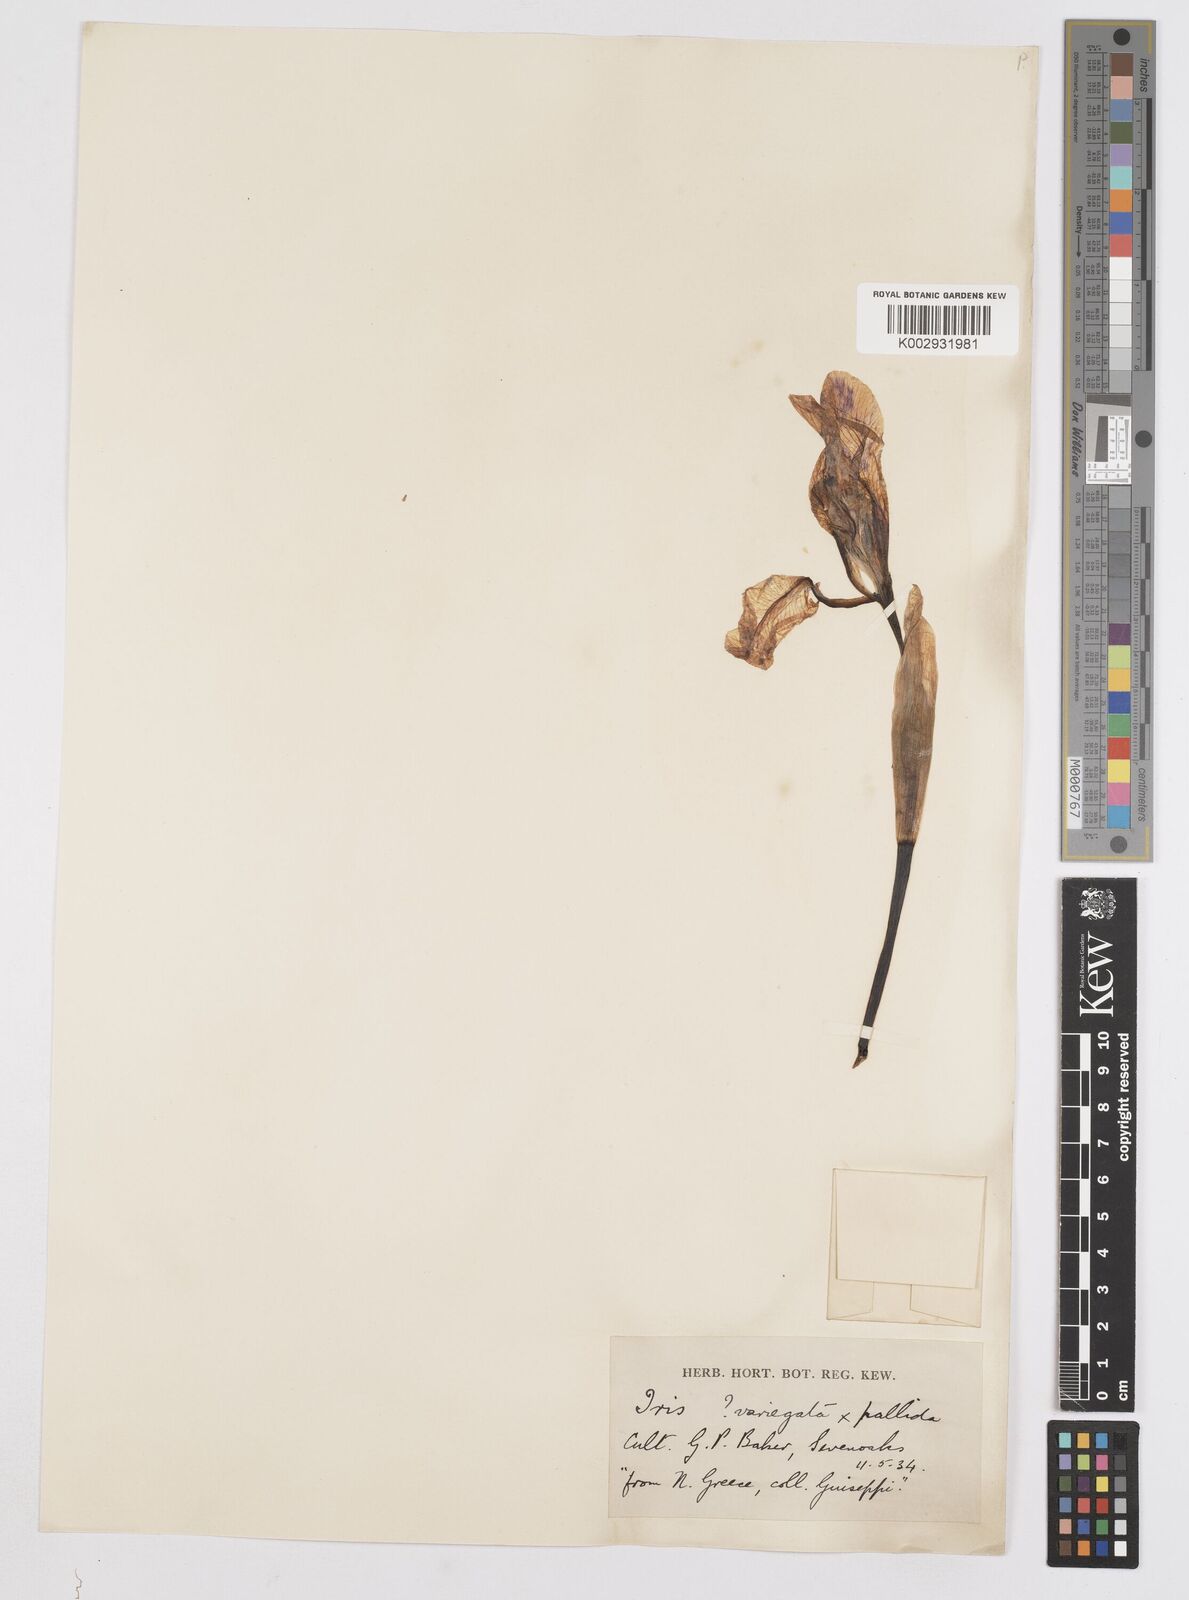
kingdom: Plantae
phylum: Tracheophyta
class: Liliopsida
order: Asparagales
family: Iridaceae
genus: Iris
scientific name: Iris
